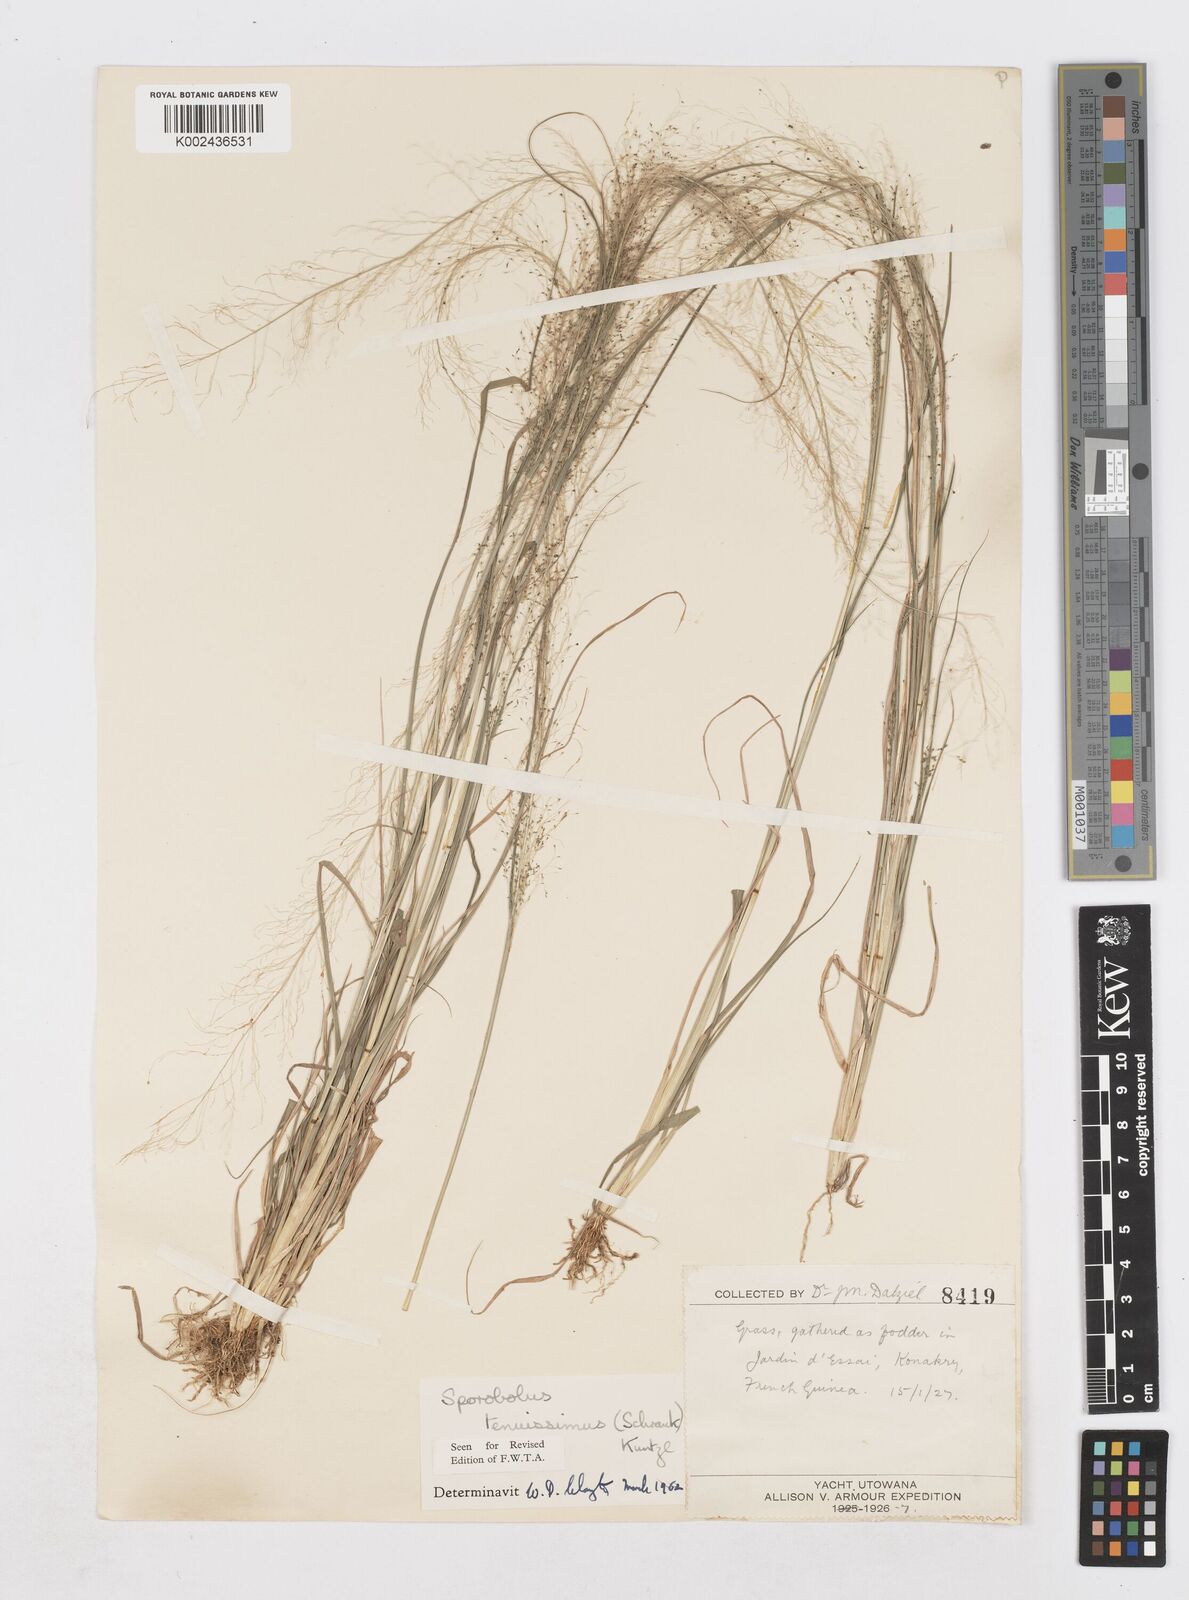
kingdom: Plantae
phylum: Tracheophyta
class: Liliopsida
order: Poales
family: Poaceae
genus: Sporobolus
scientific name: Sporobolus tenuissimus
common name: Tropical dropseed
